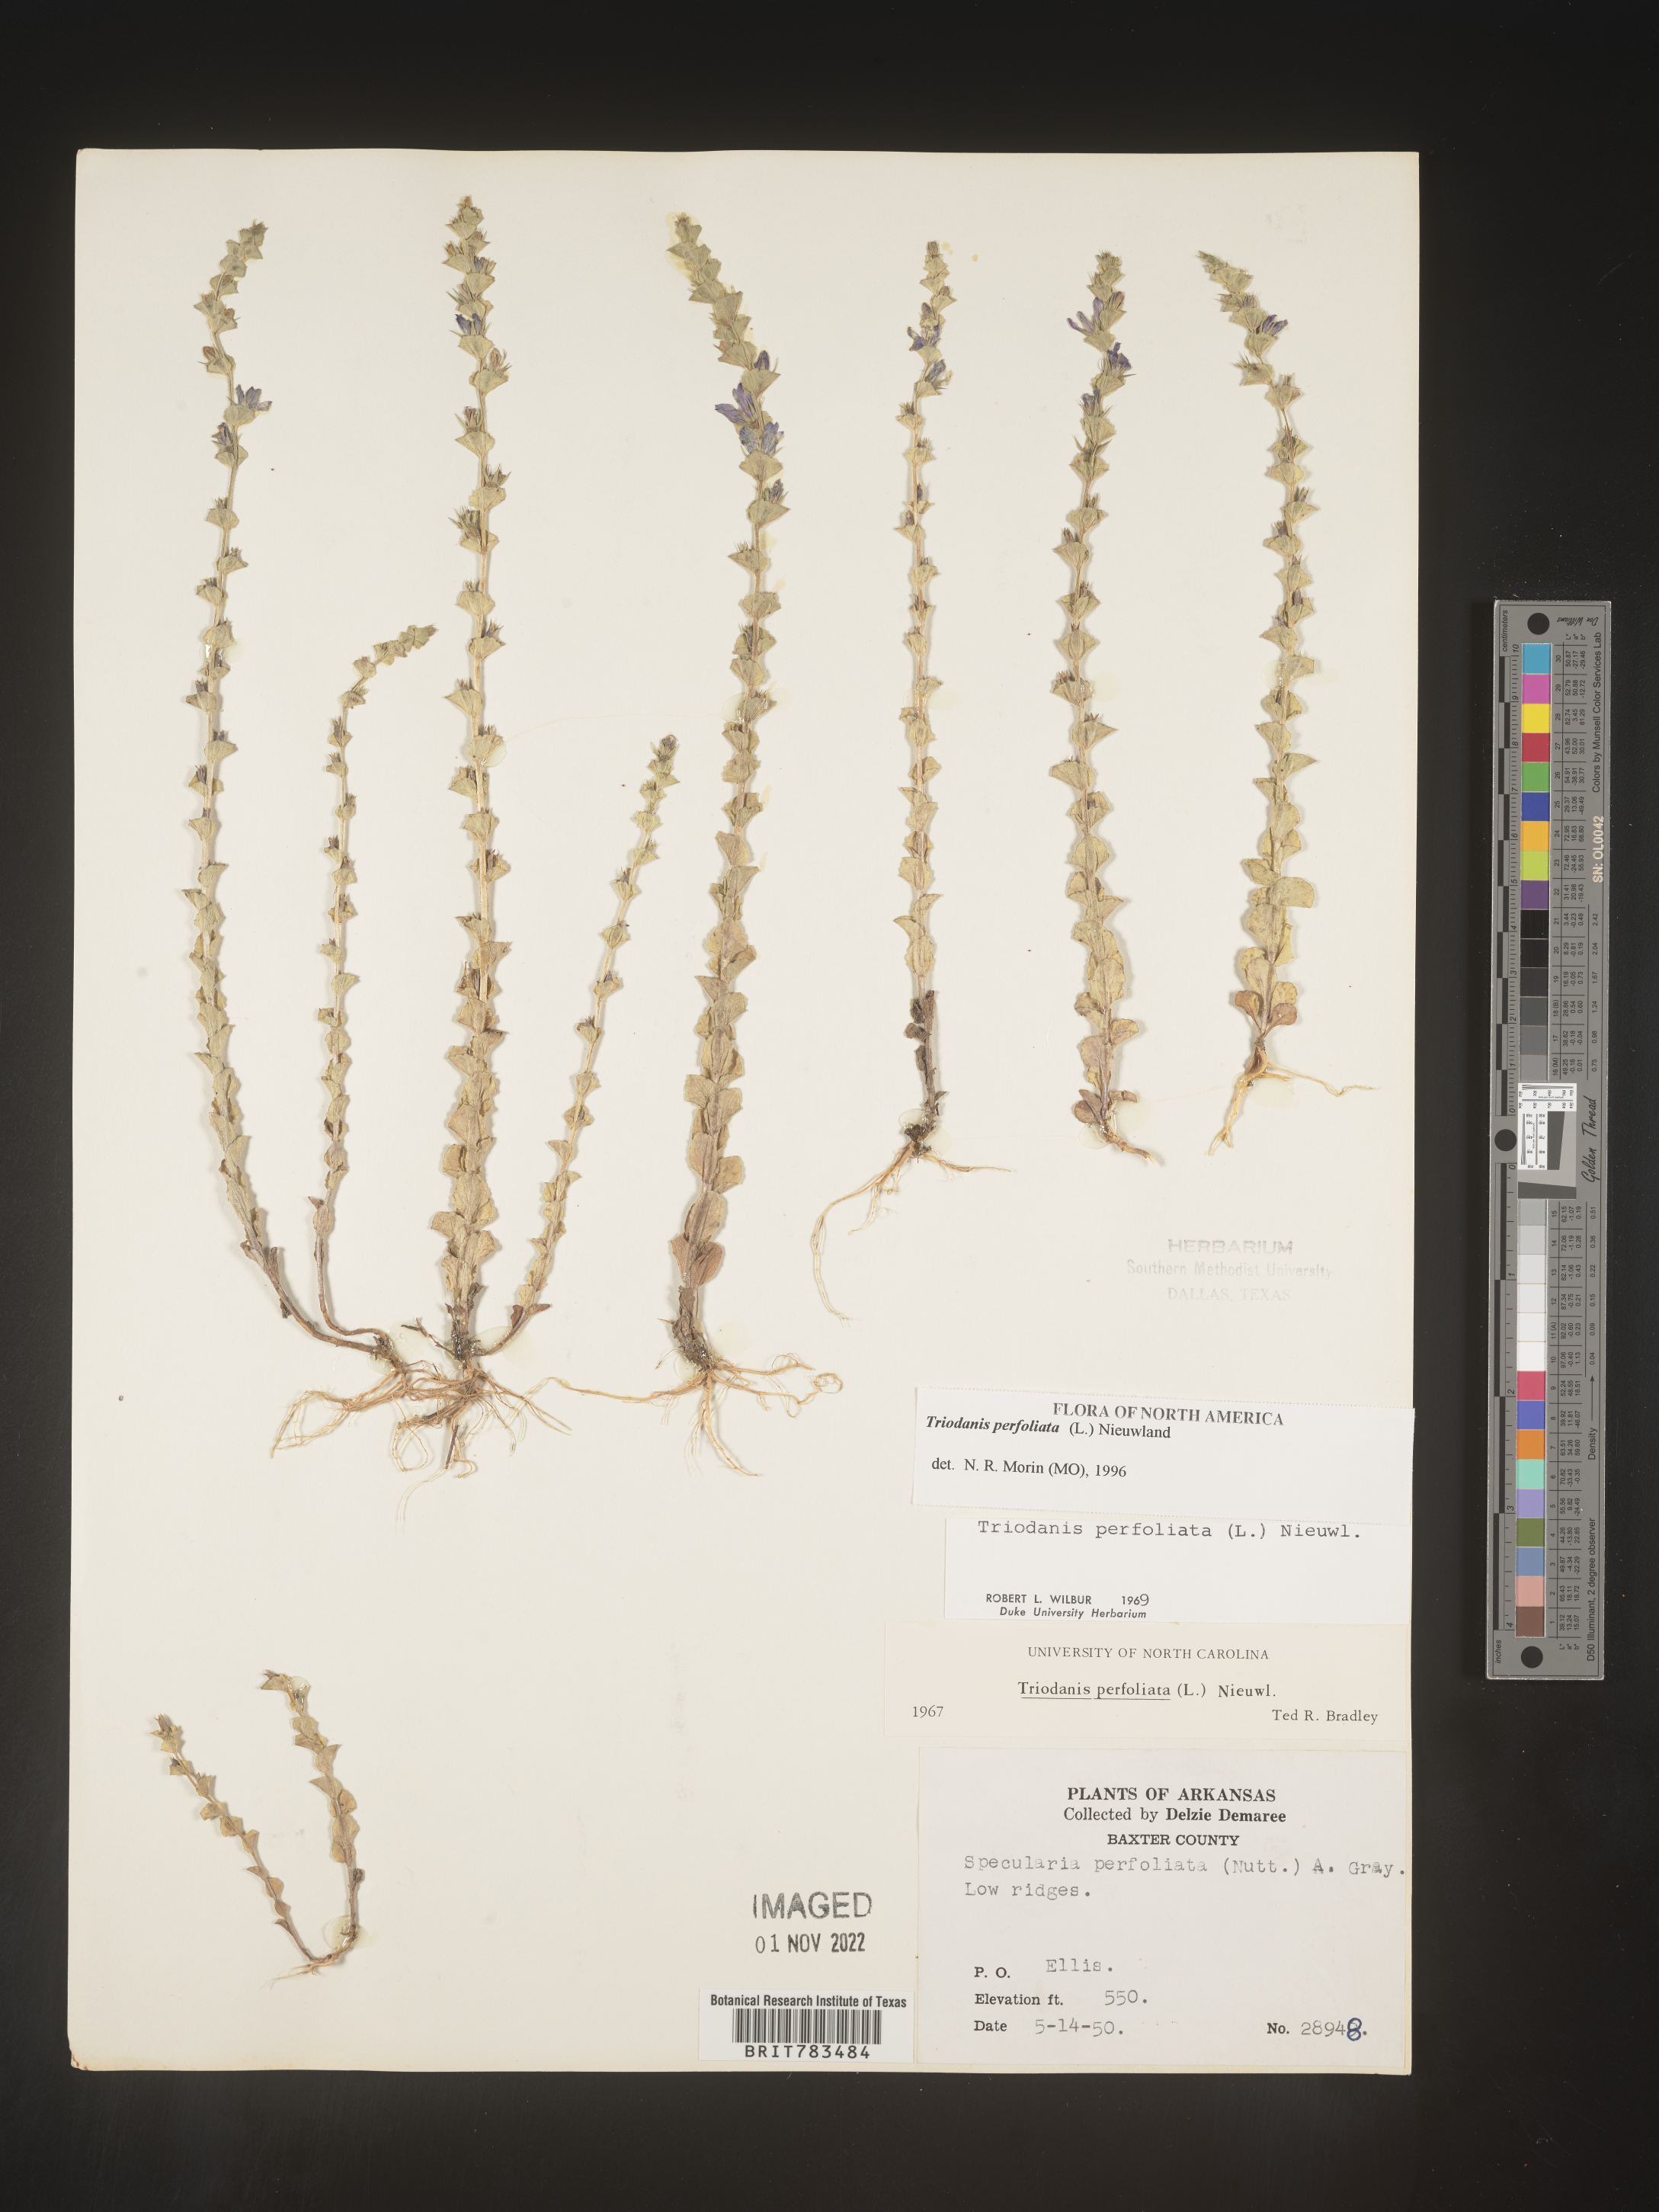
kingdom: Plantae
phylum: Tracheophyta
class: Magnoliopsida
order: Asterales
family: Campanulaceae
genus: Triodanis
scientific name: Triodanis perfoliata
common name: Clasping venus' looking-glass
